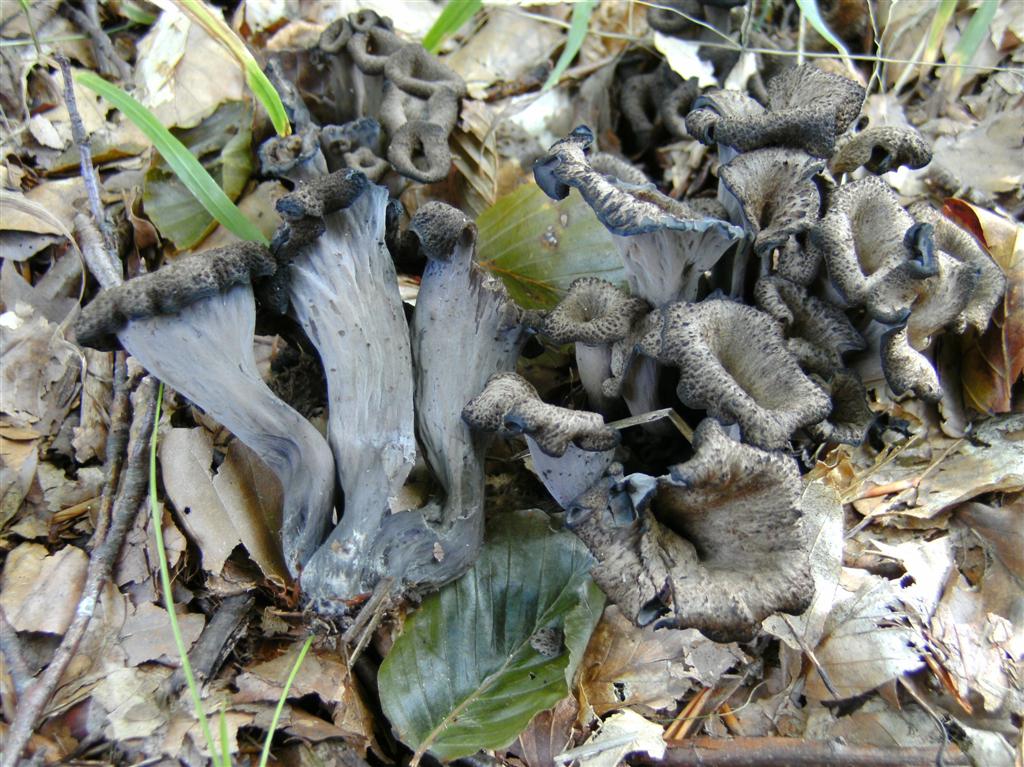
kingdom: Fungi
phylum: Basidiomycota
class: Agaricomycetes
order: Cantharellales
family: Hydnaceae
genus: Craterellus
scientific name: Craterellus cornucopioides
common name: trompetsvamp
